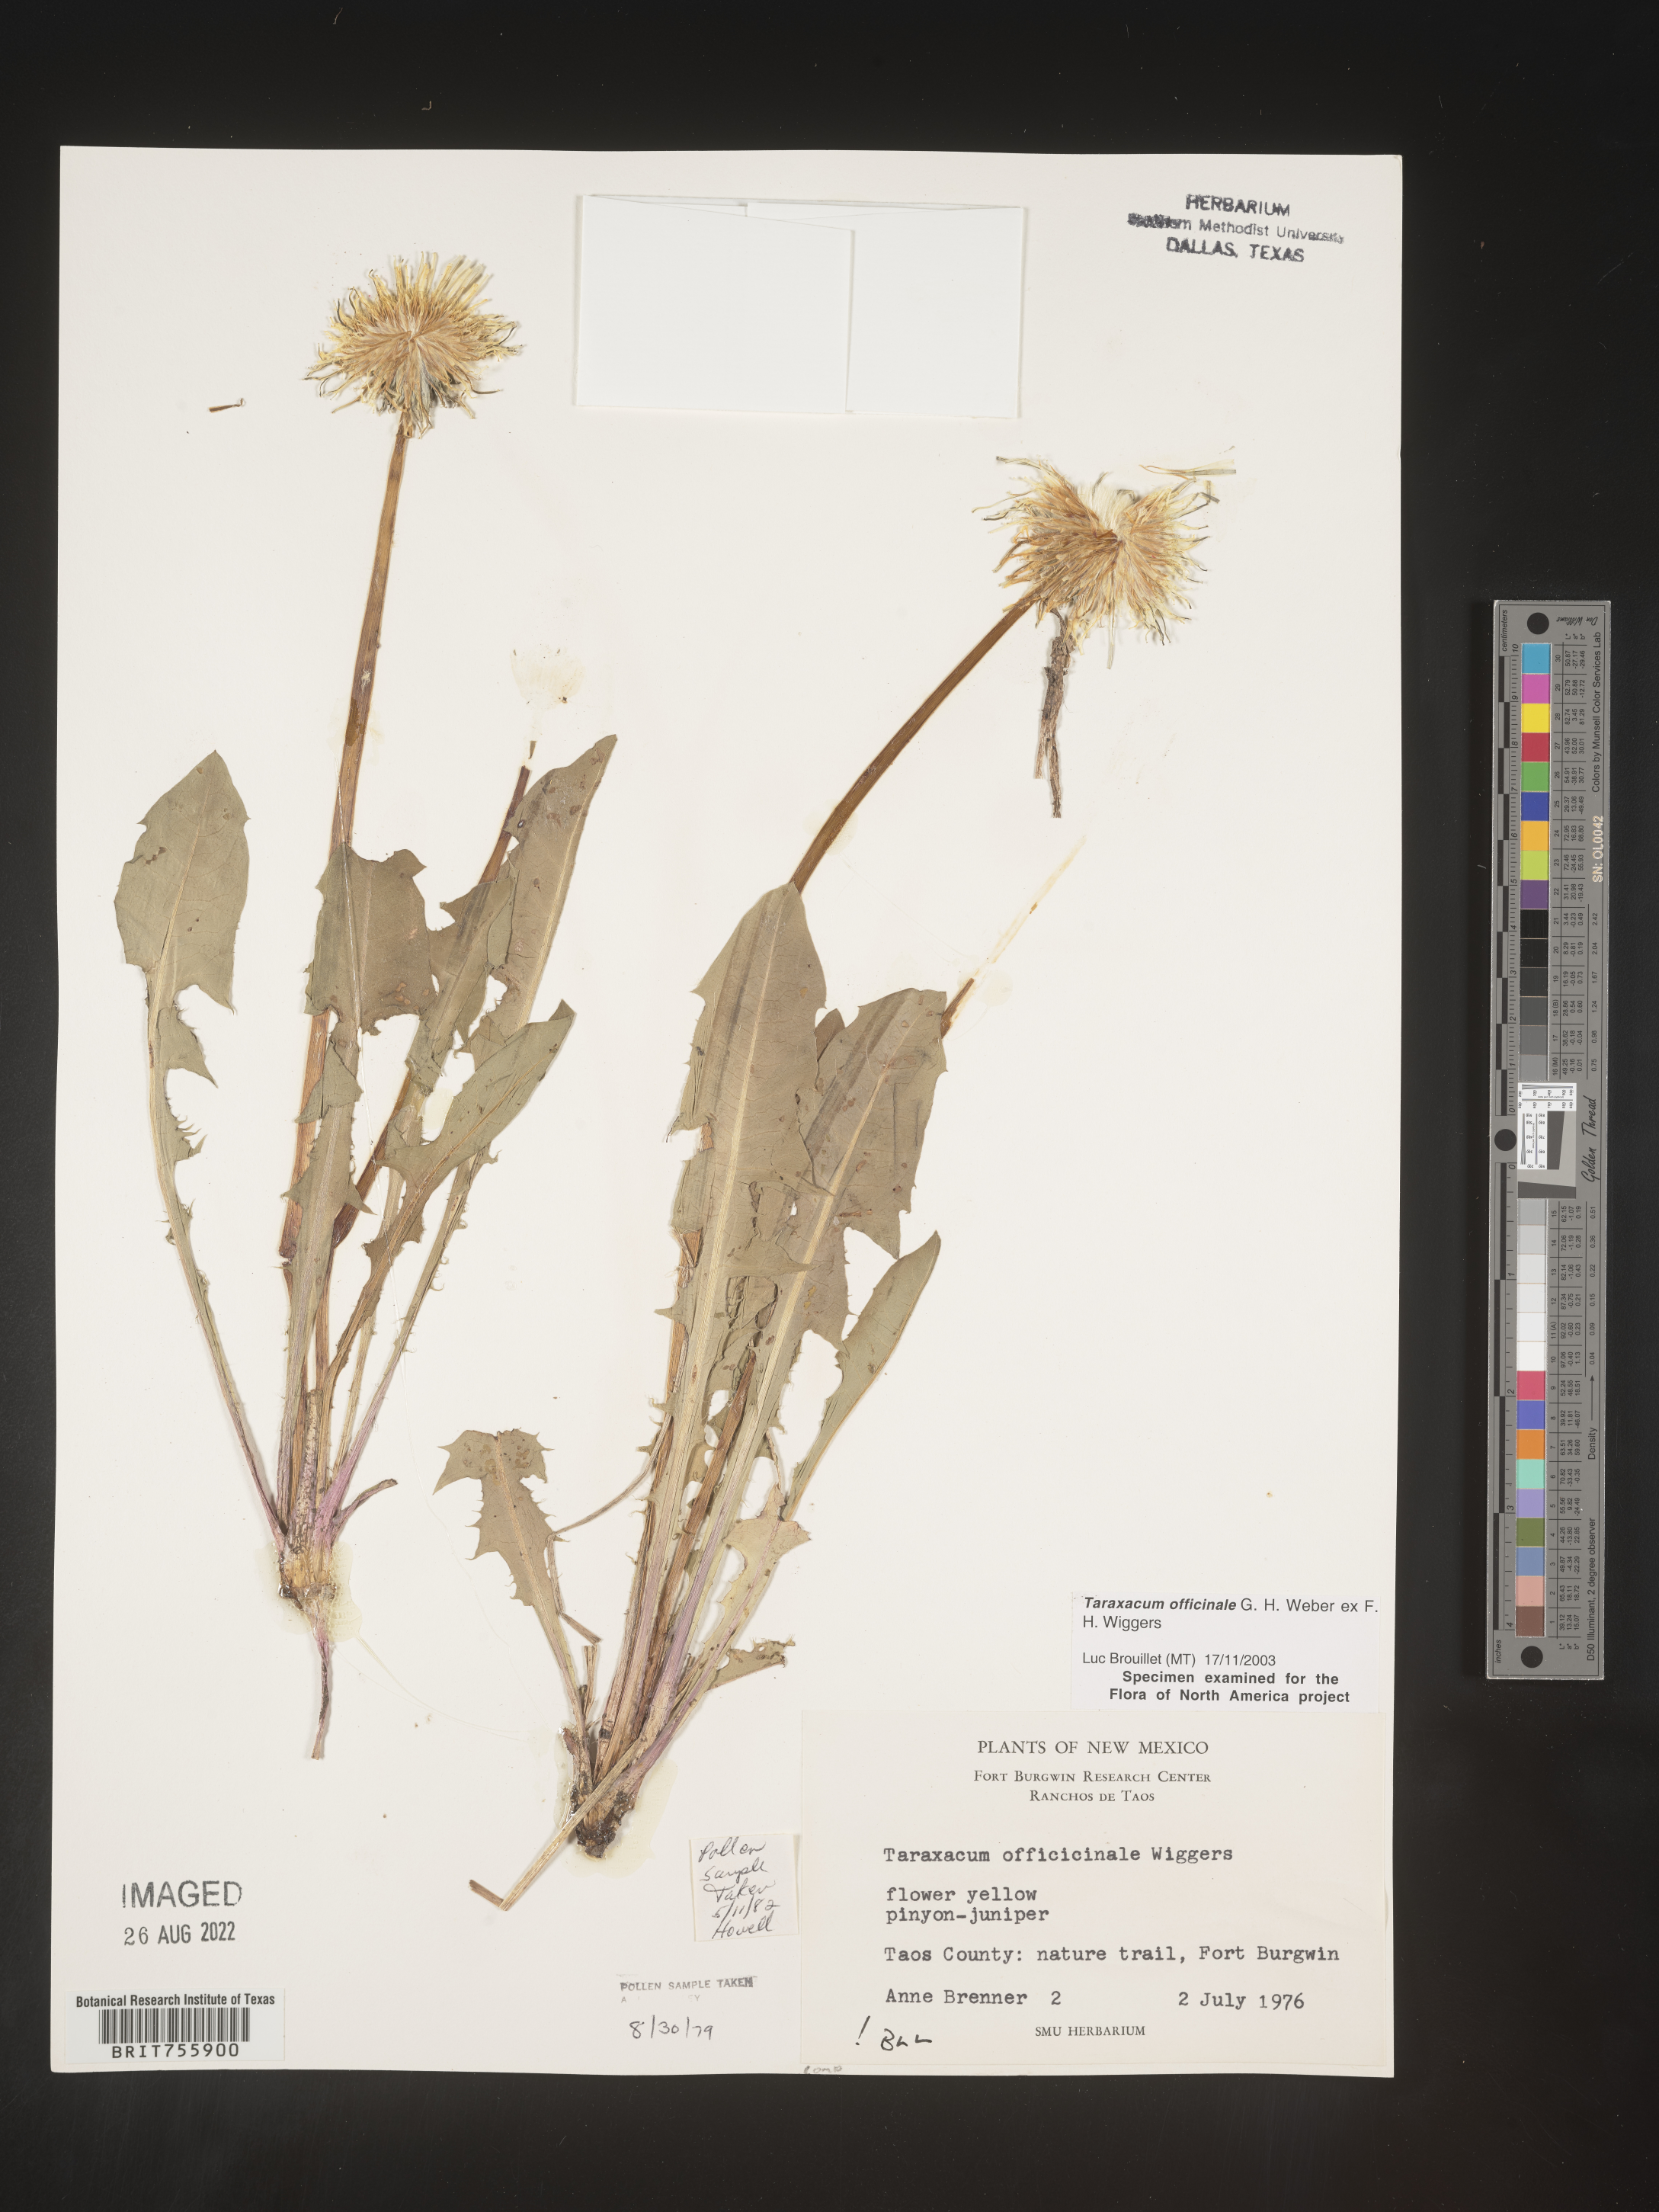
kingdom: Plantae
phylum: Tracheophyta
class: Magnoliopsida
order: Asterales
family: Asteraceae
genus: Taraxacum
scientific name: Taraxacum officinale
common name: Common dandelion
